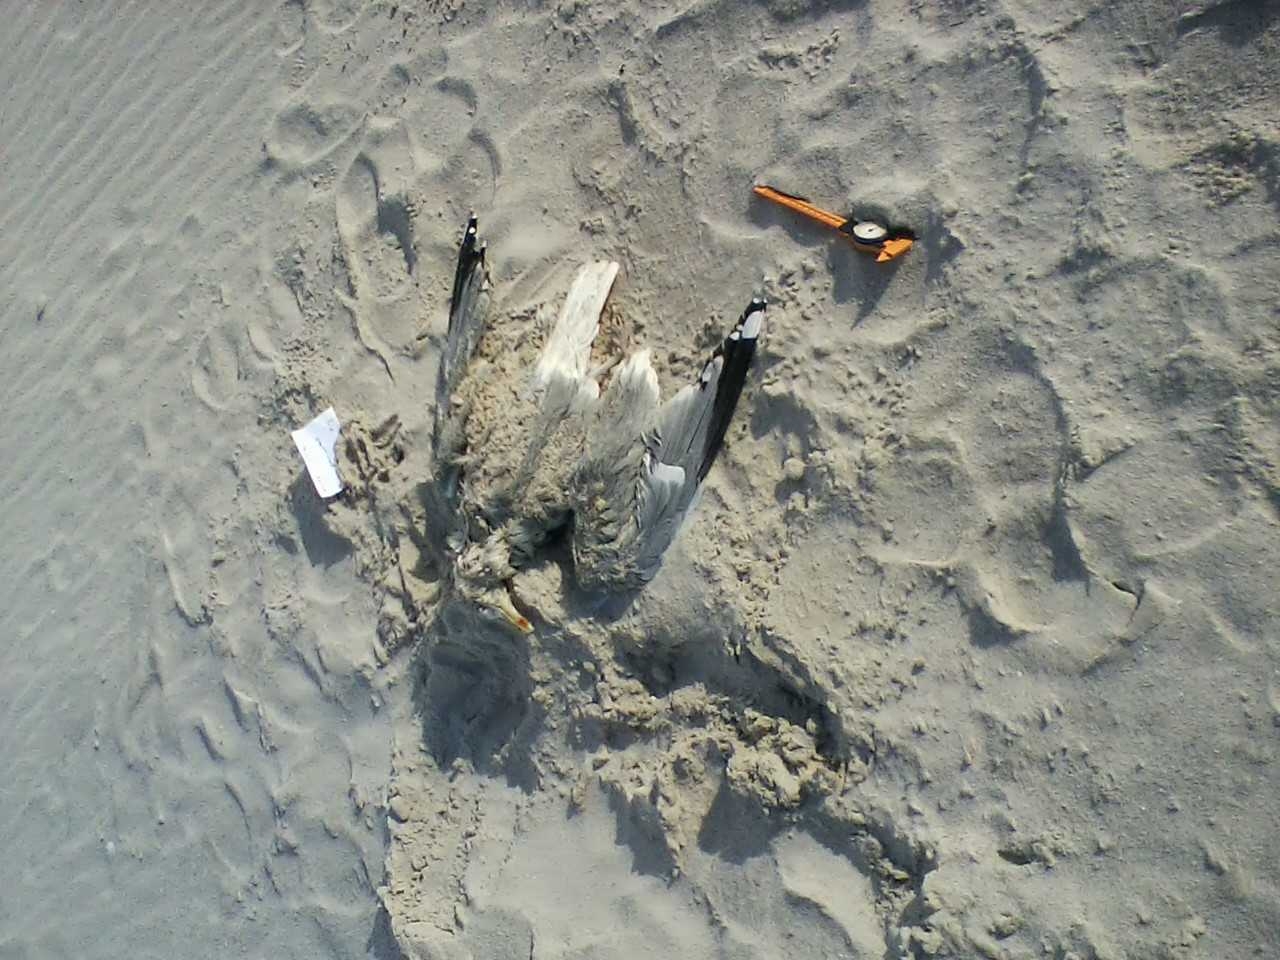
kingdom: Animalia
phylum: Chordata
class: Aves
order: Suliformes
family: Phalacrocoracidae
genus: Phalacrocorax
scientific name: Phalacrocorax
